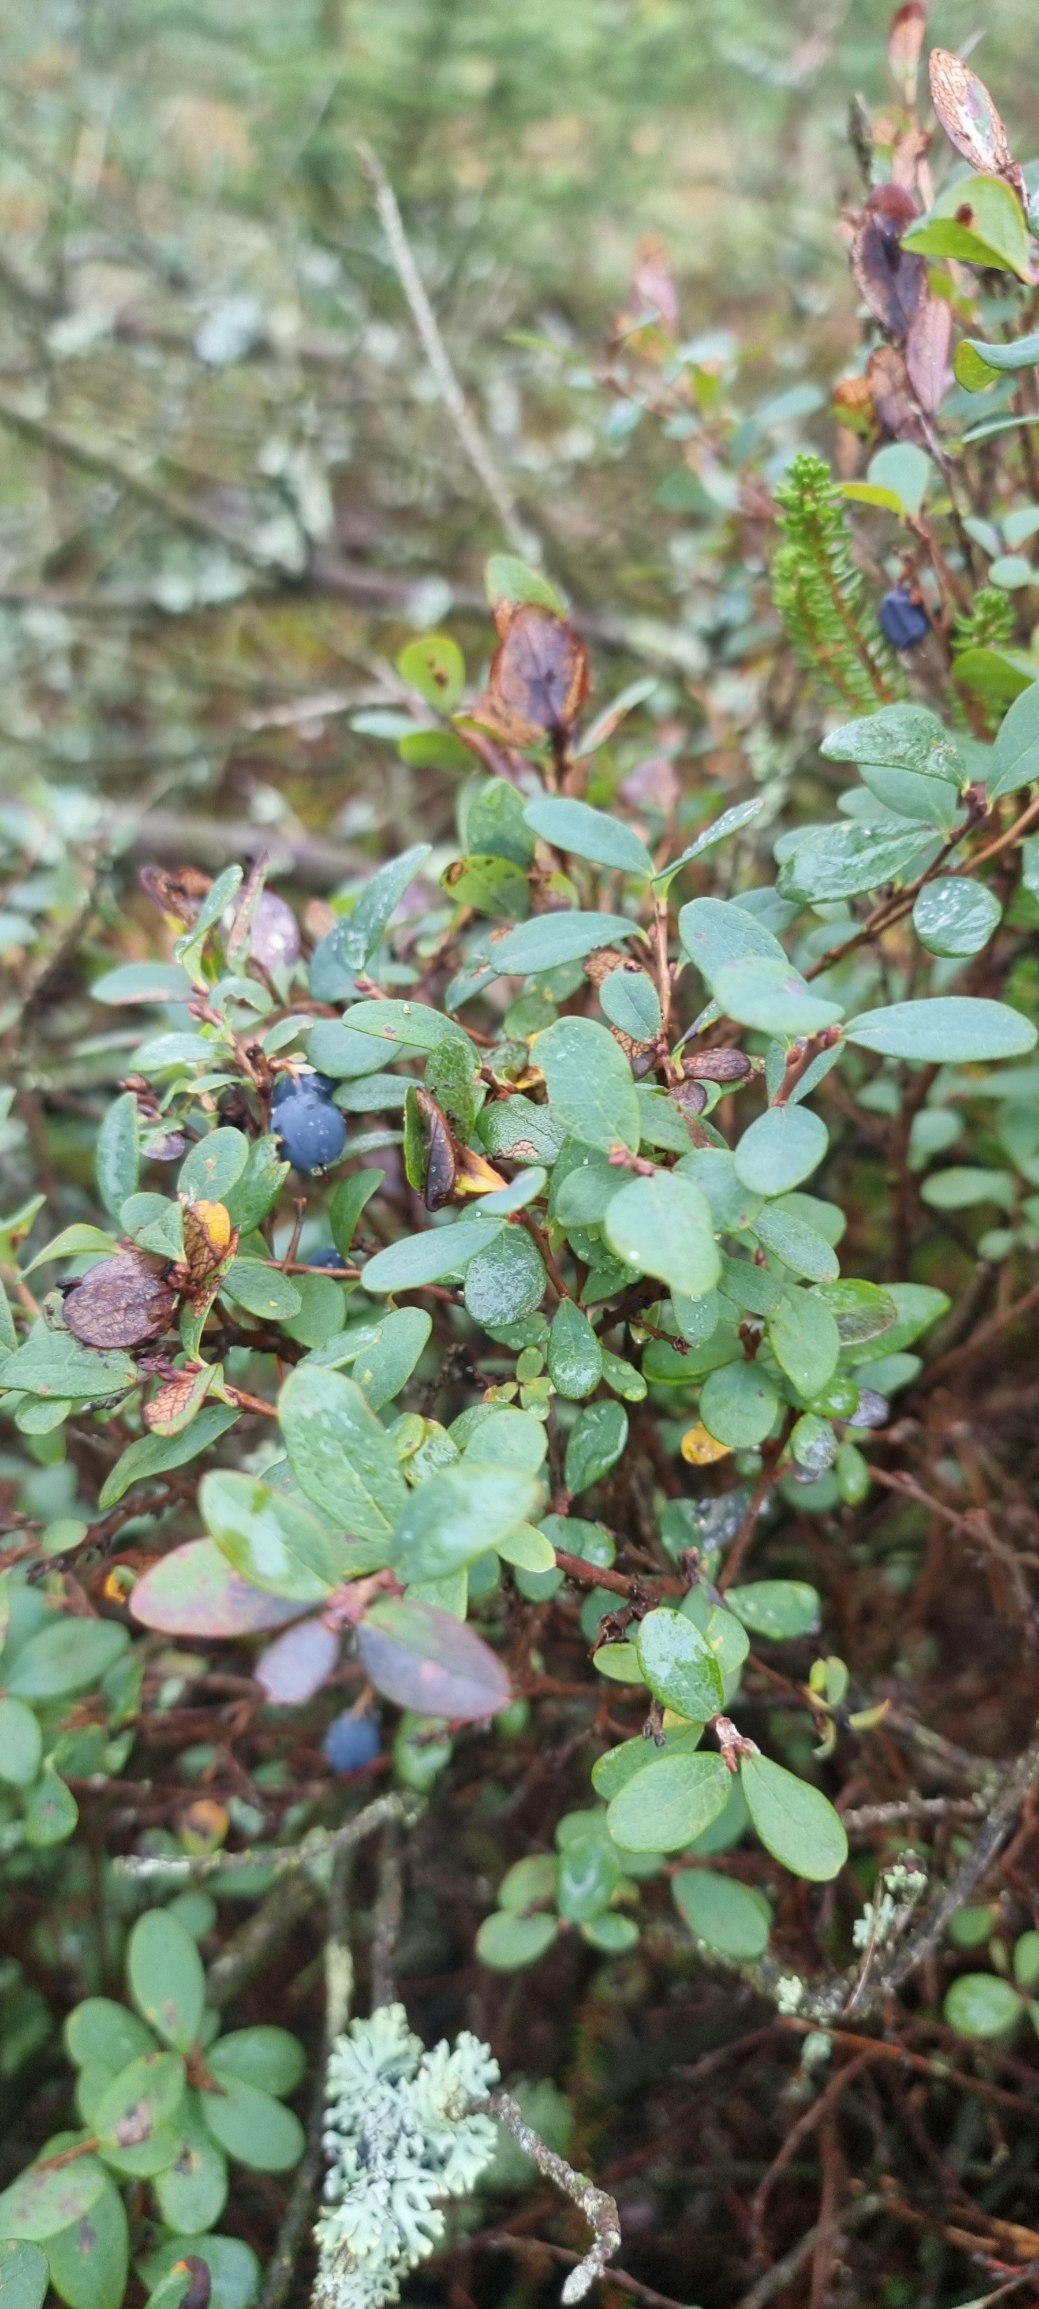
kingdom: Plantae
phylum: Tracheophyta
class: Magnoliopsida
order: Ericales
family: Ericaceae
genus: Vaccinium
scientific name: Vaccinium uliginosum
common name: Mose-bølle
